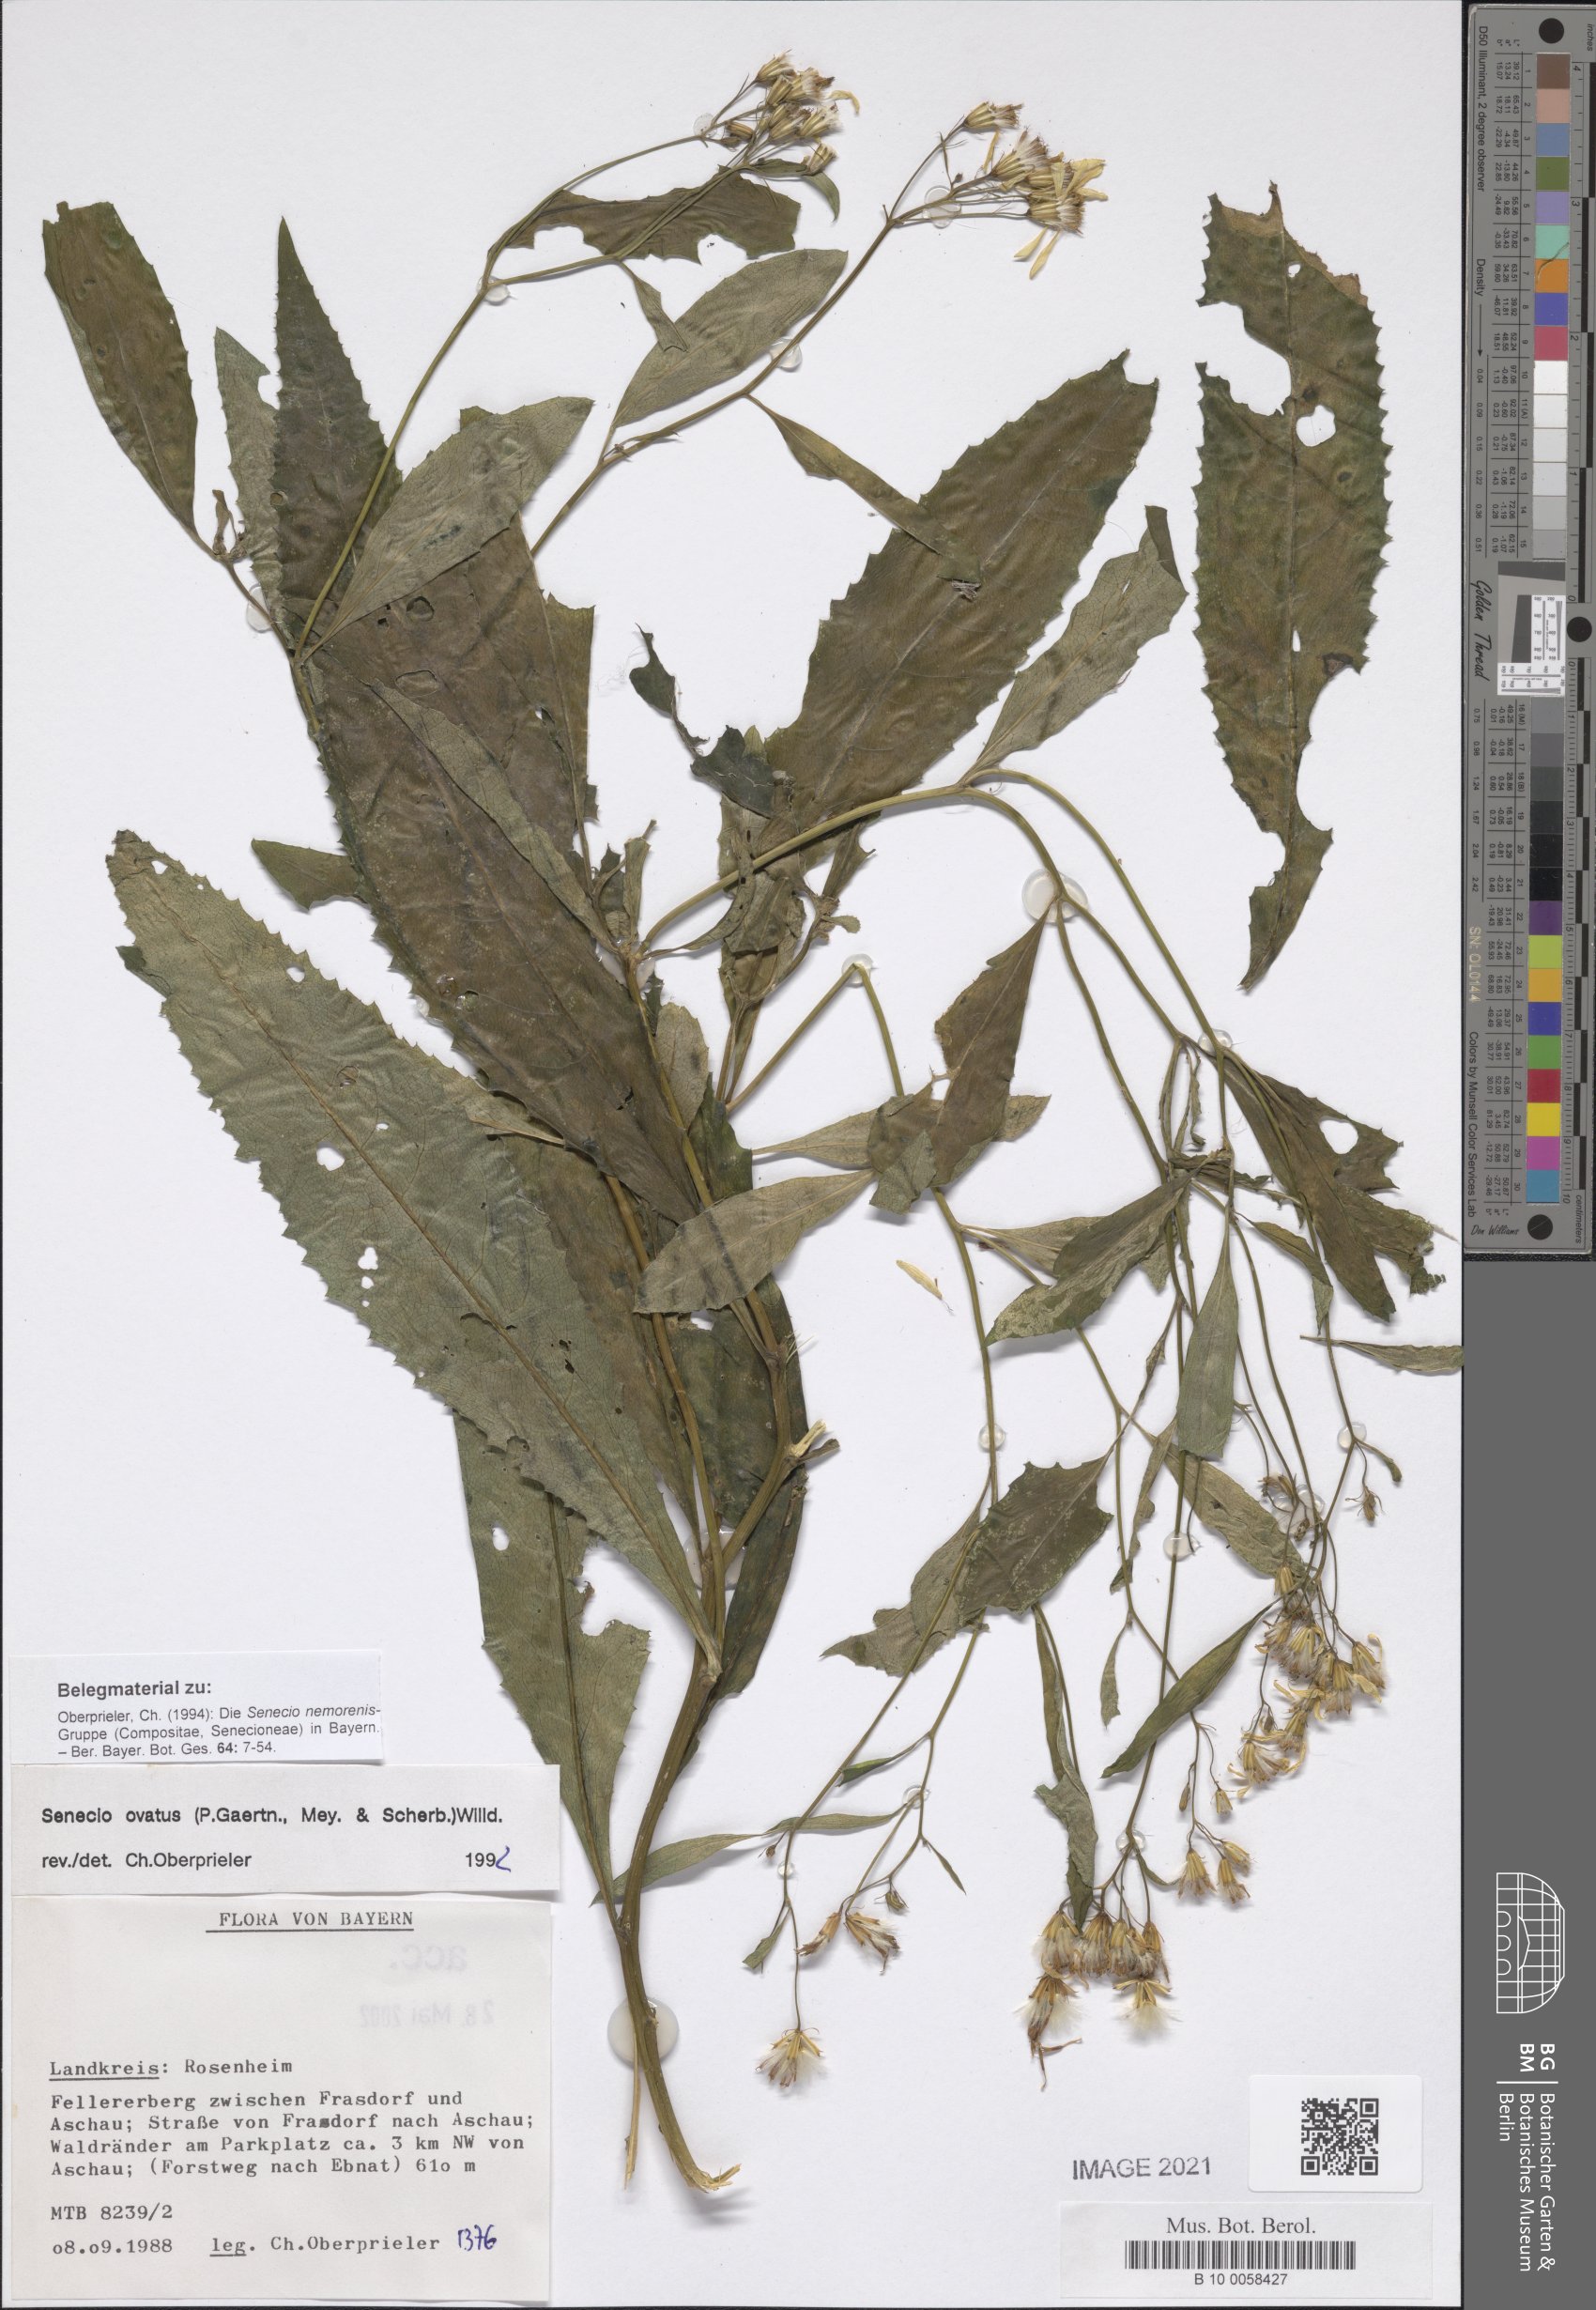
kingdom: Plantae
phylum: Tracheophyta
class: Magnoliopsida
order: Asterales
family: Asteraceae
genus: Senecio
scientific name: Senecio ovatus
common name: Wood ragwort
